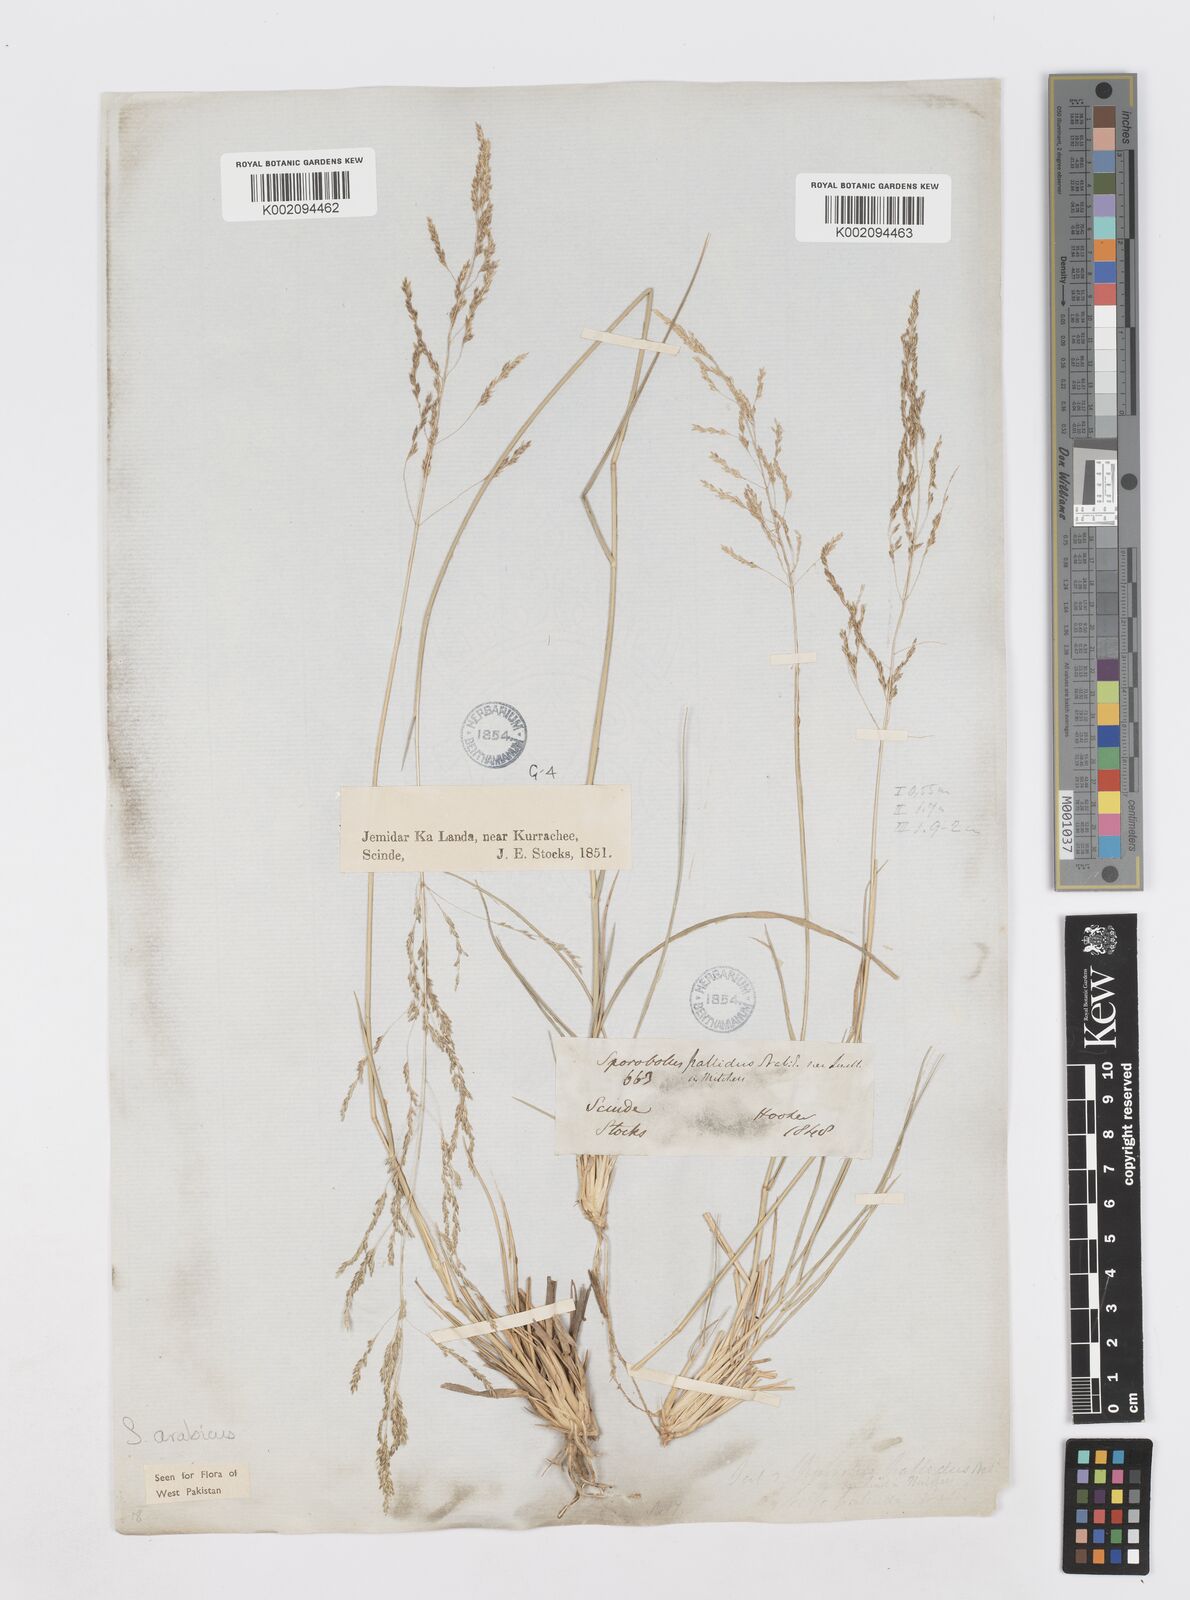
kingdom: Plantae
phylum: Tracheophyta
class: Liliopsida
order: Poales
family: Poaceae
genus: Sporobolus
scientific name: Sporobolus ioclados
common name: Pan dropseed
